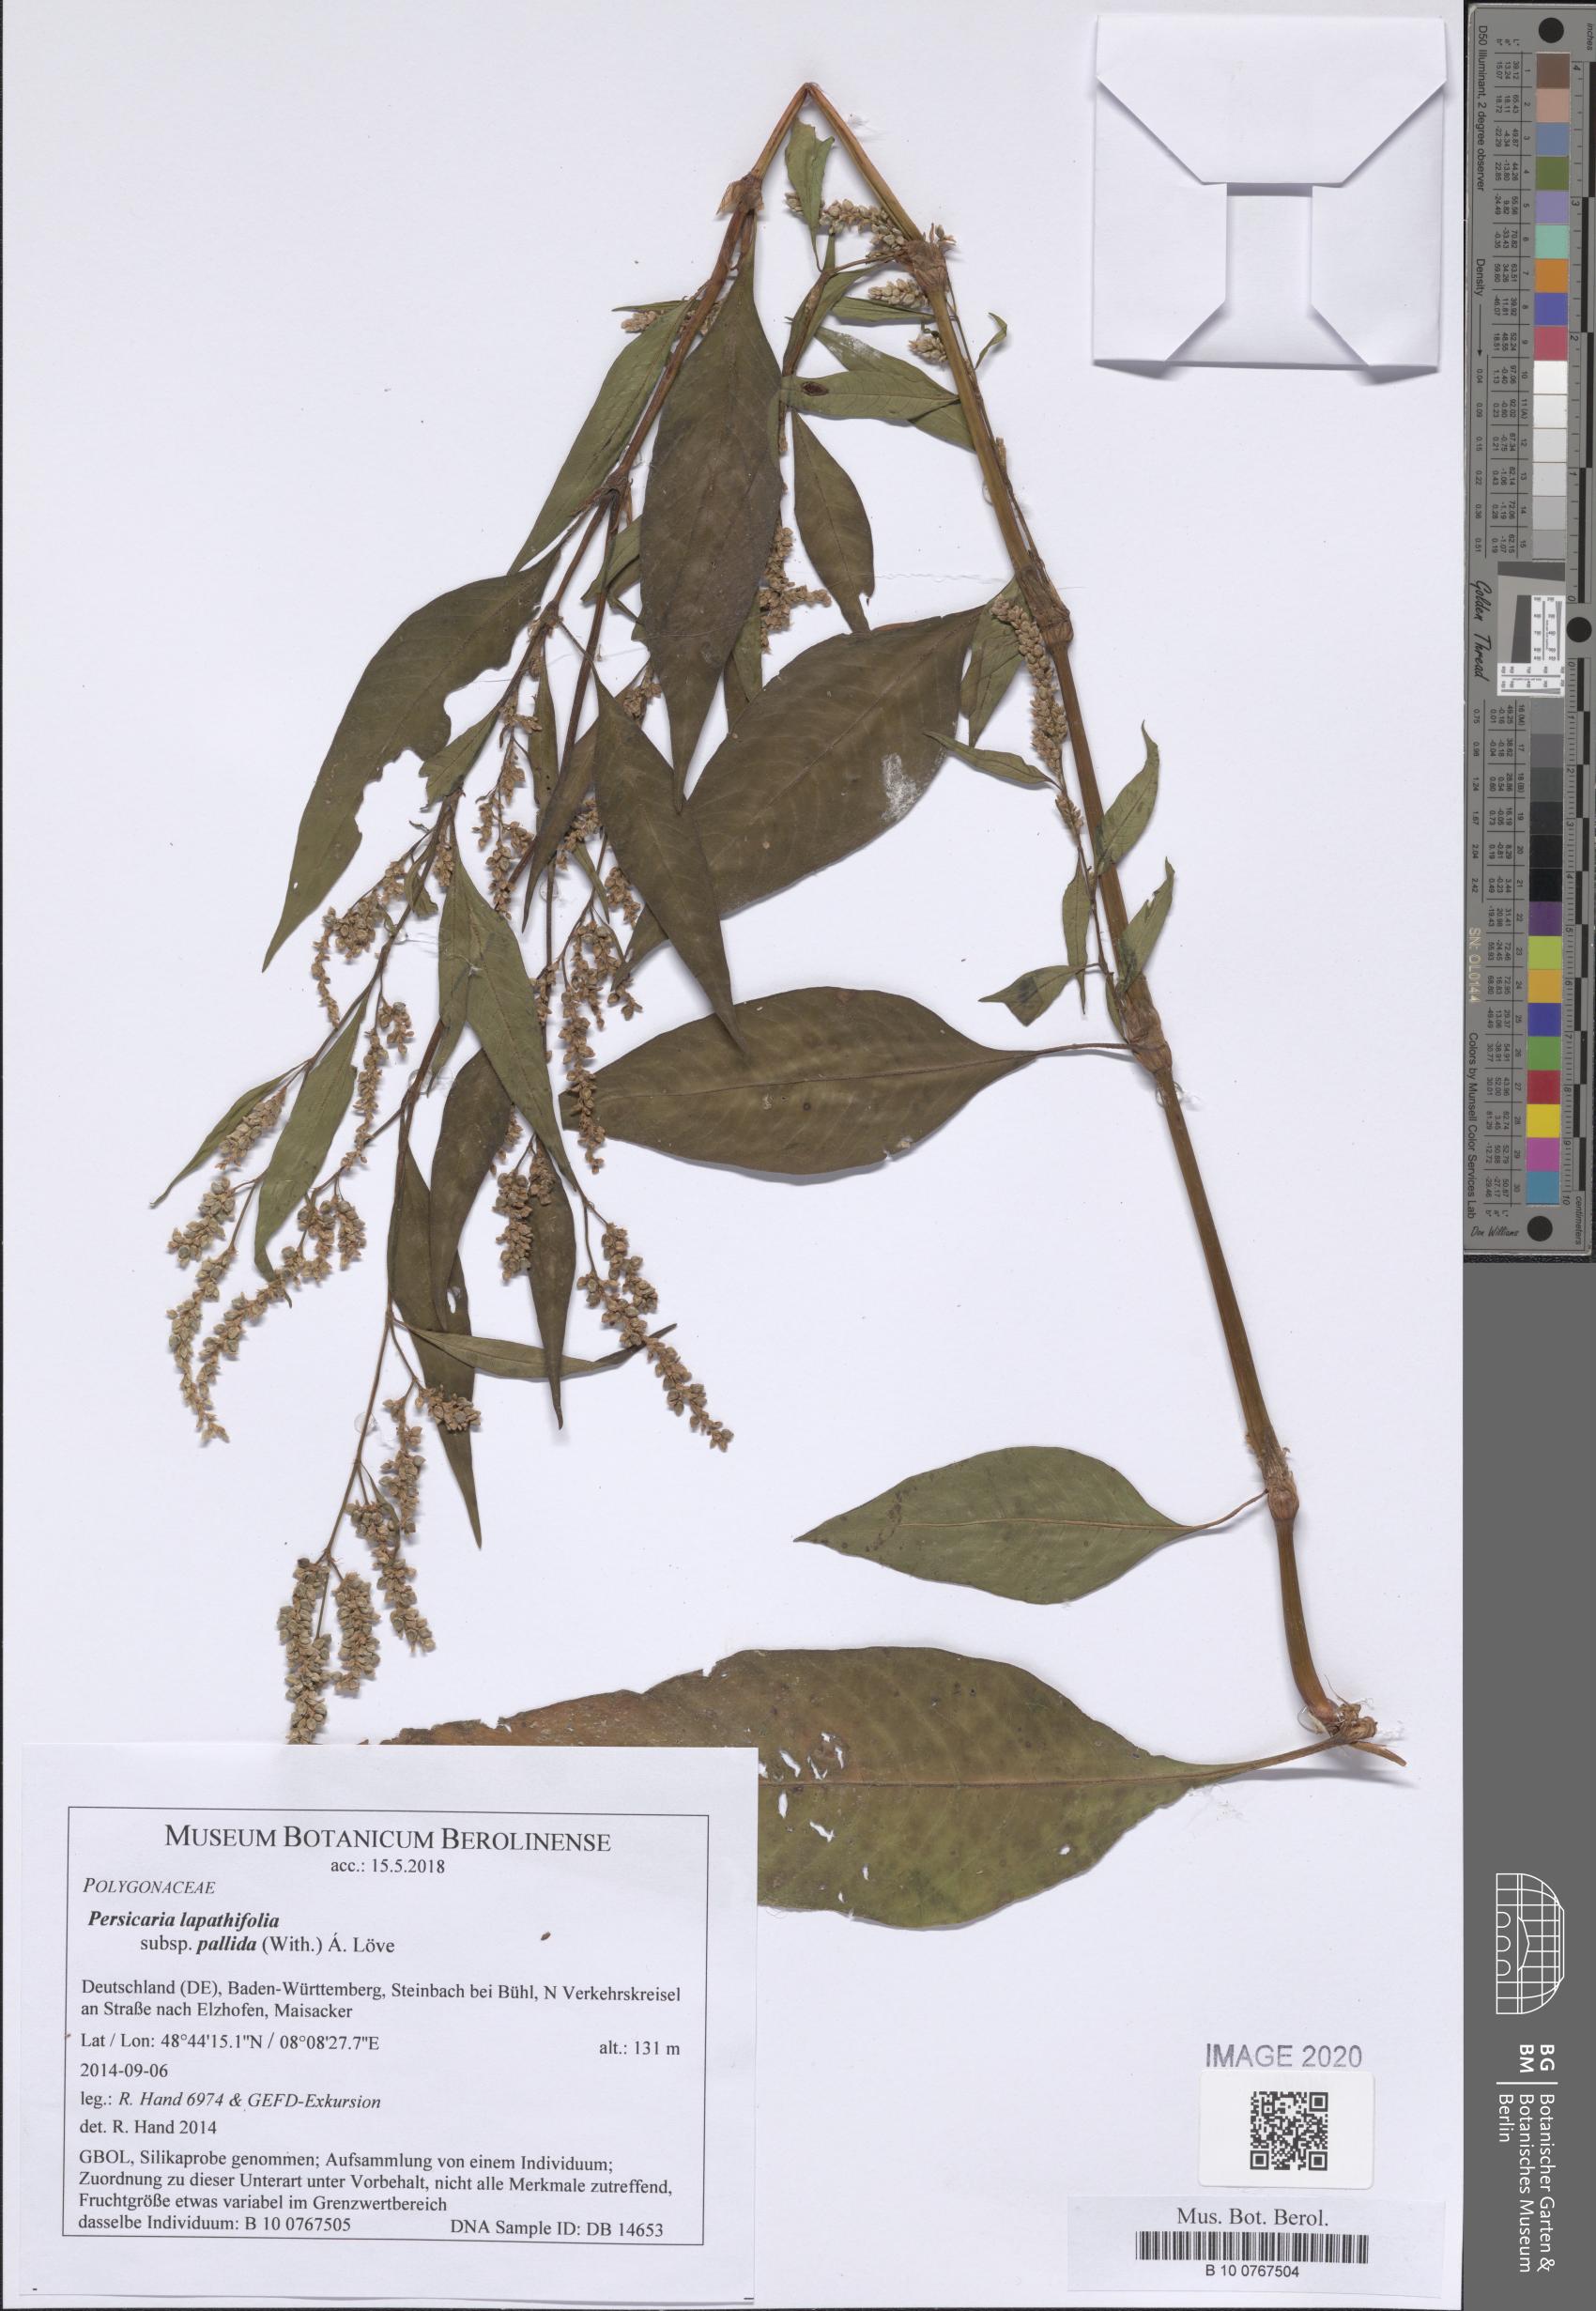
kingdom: Plantae
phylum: Tracheophyta
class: Magnoliopsida
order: Caryophyllales
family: Polygonaceae
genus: Persicaria
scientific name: Persicaria lapathifolia
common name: Curlytop knotweed
